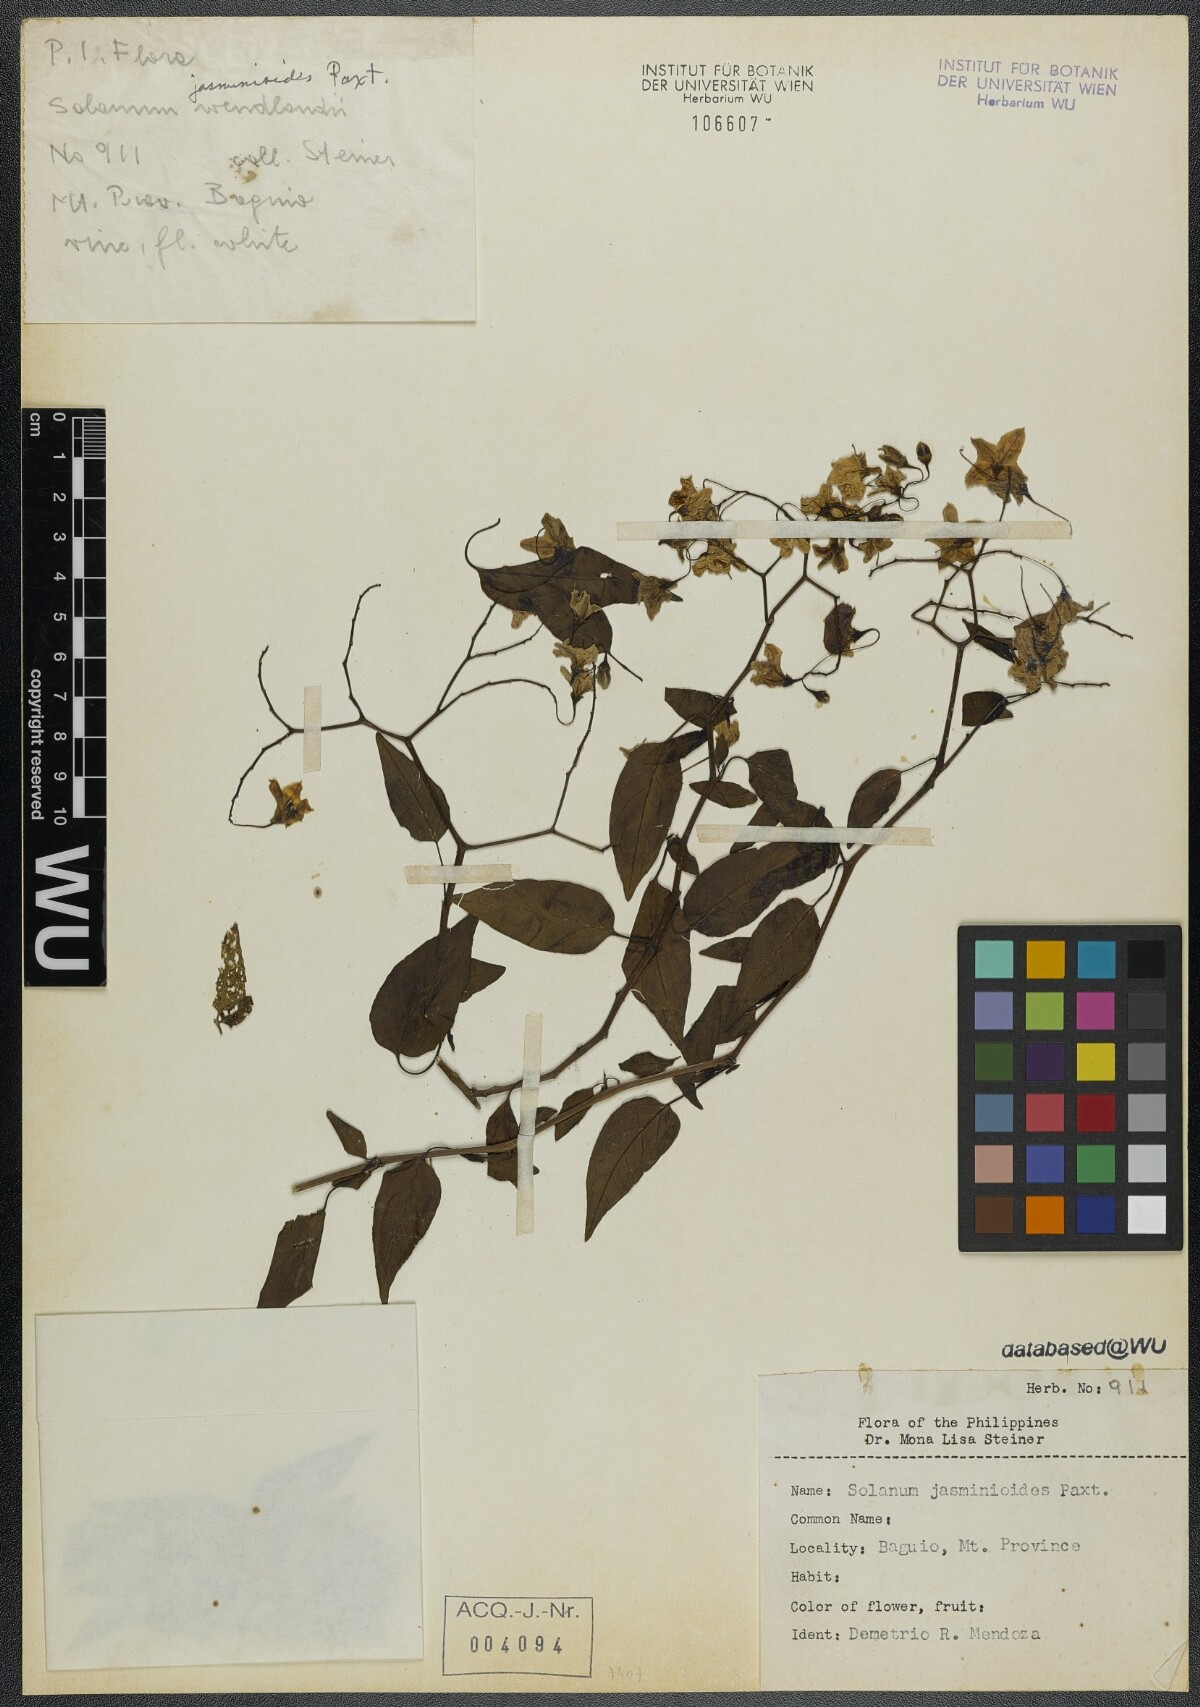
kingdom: Plantae
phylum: Tracheophyta
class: Magnoliopsida
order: Solanales
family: Solanaceae
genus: Solanum
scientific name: Solanum laxum
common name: Nightshade
